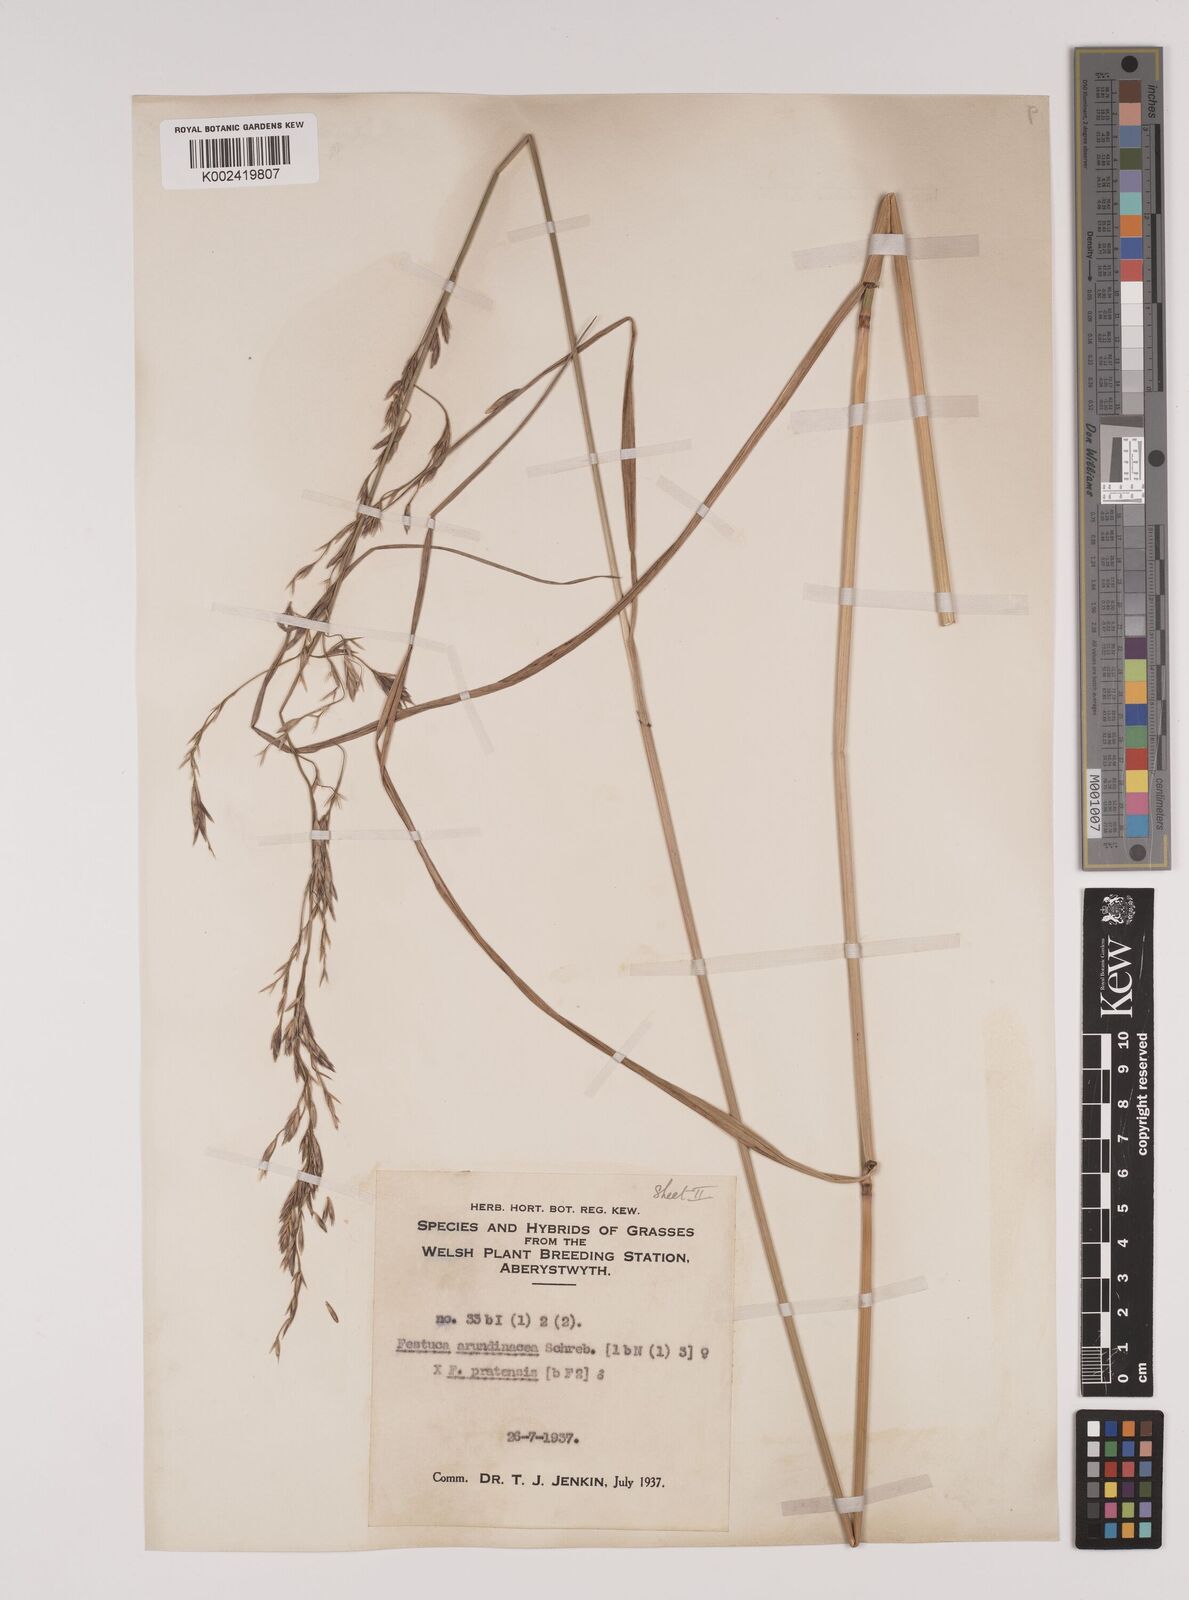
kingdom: Plantae
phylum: Tracheophyta
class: Liliopsida
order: Poales
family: Poaceae
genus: Festuca
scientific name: Festuca rubra
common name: Red fescue
